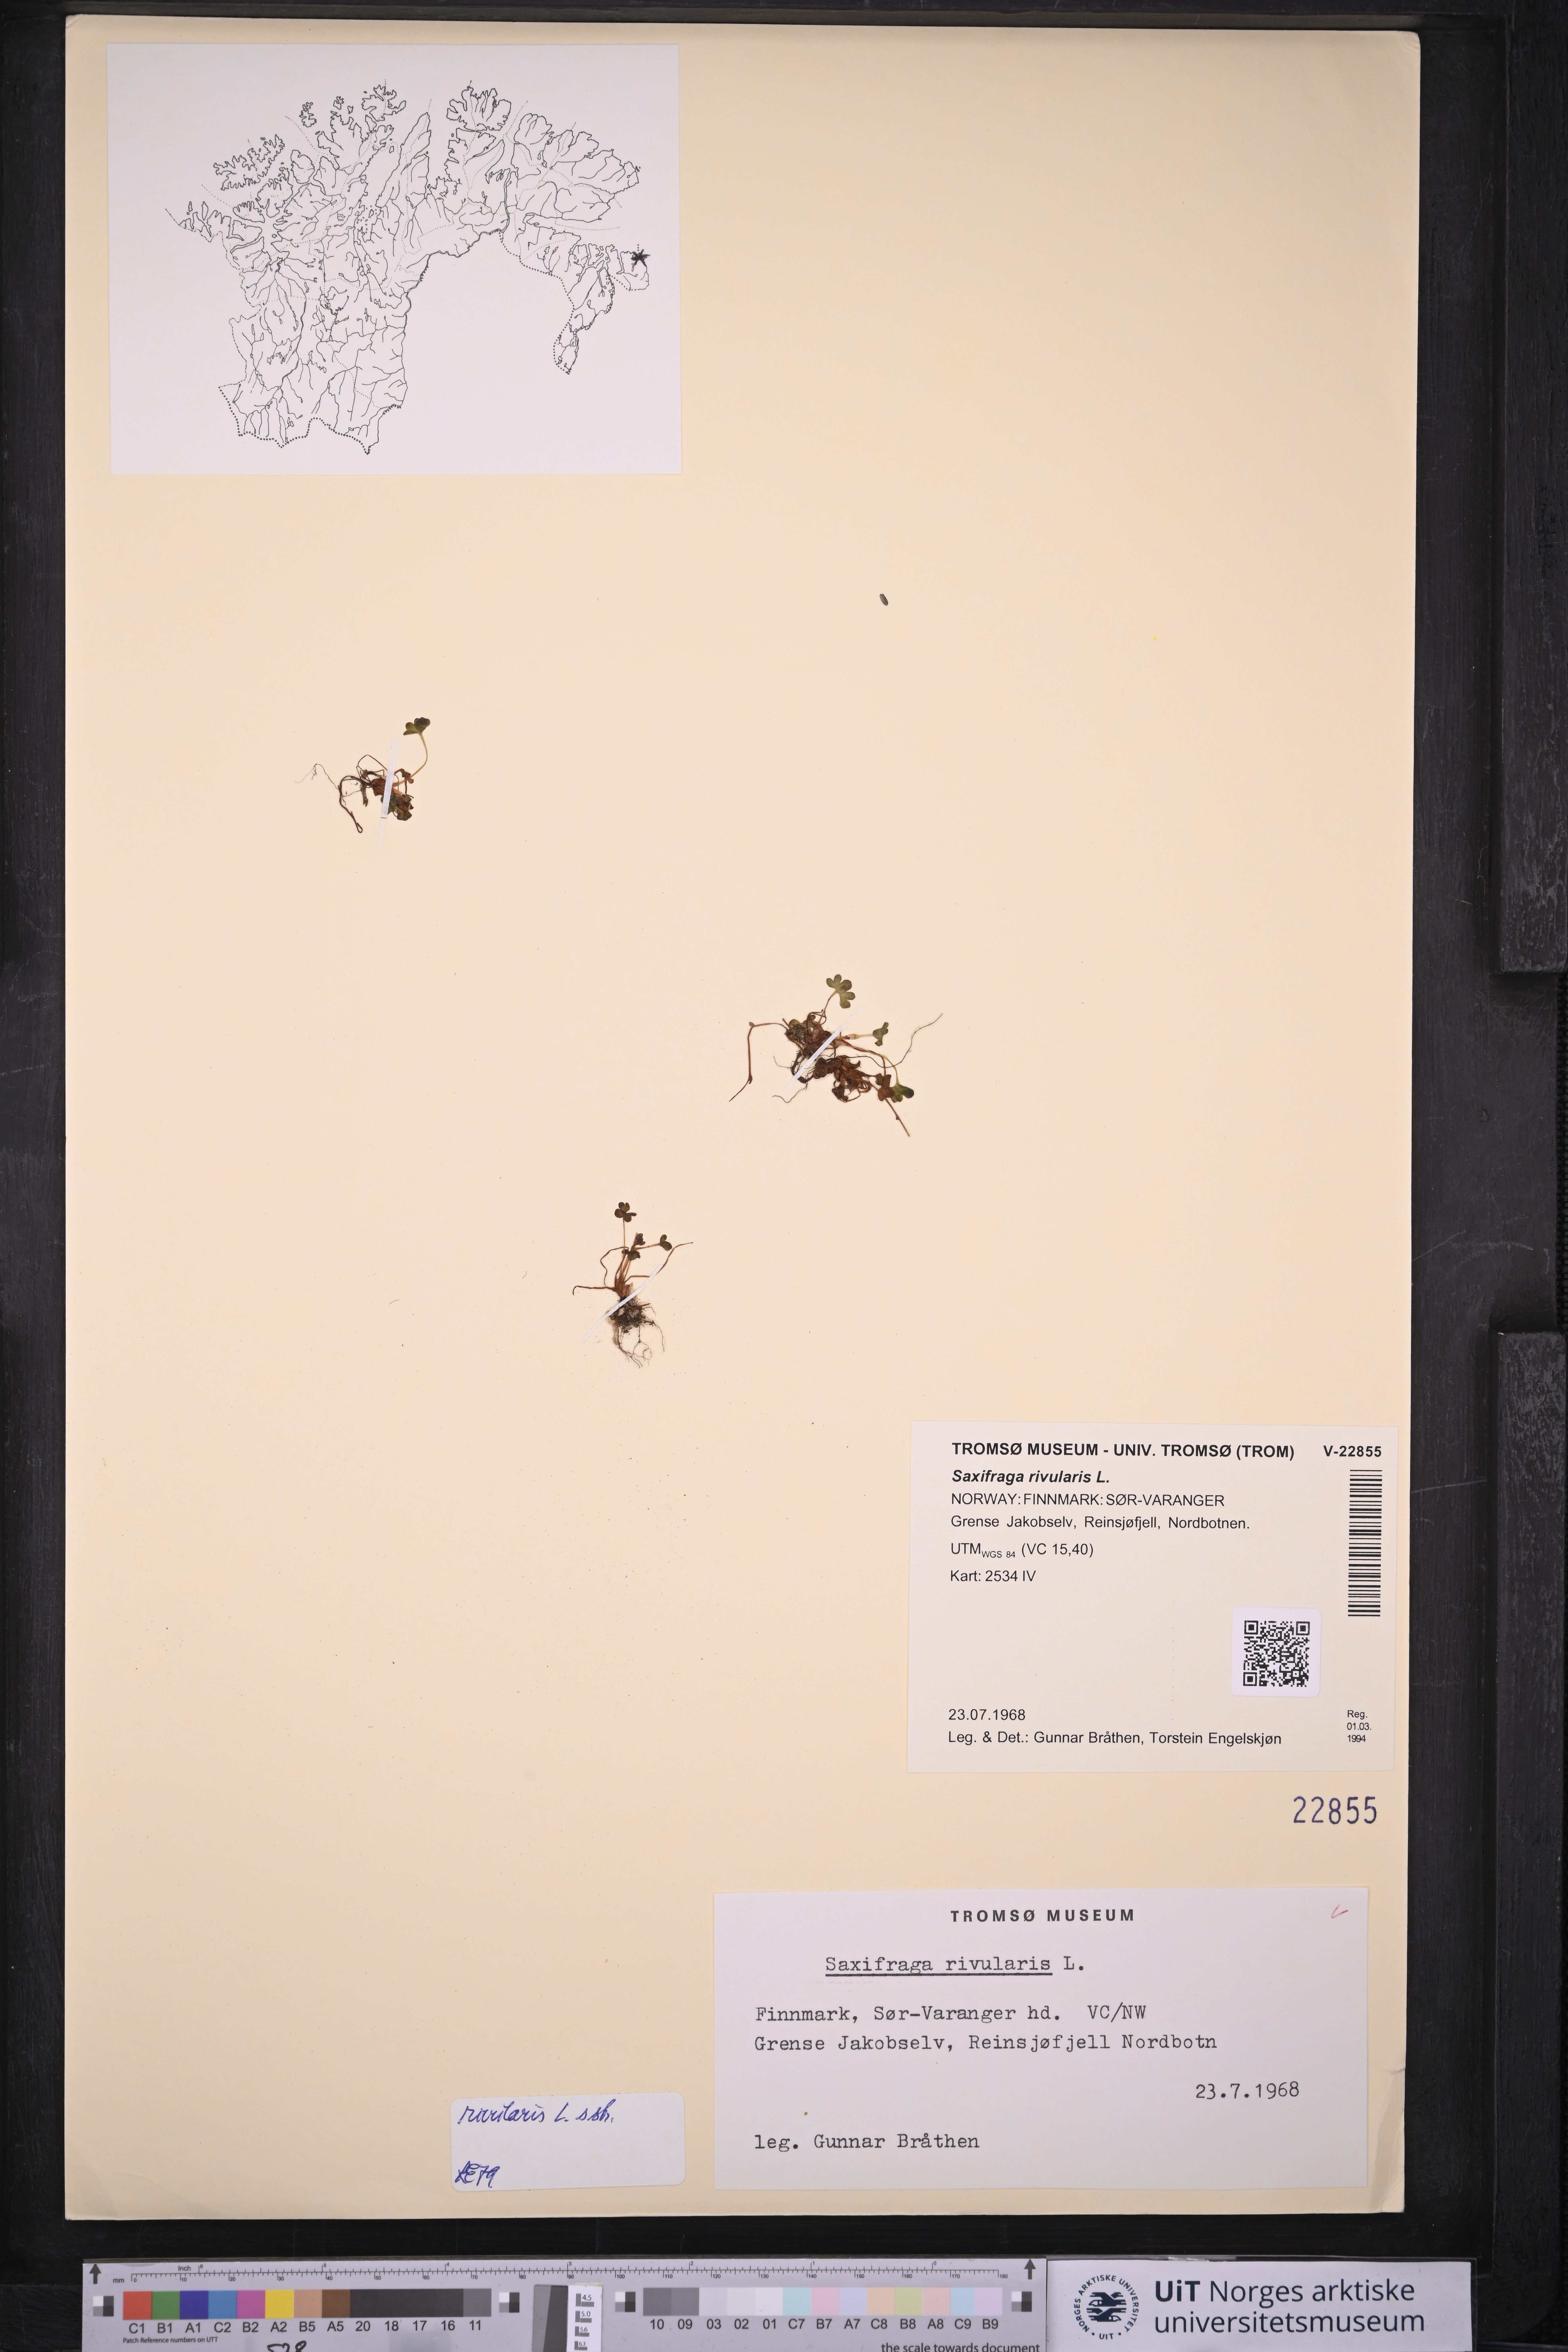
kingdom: Plantae
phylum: Tracheophyta
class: Magnoliopsida
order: Saxifragales
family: Saxifragaceae
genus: Saxifraga
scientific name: Saxifraga rivularis
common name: Highland saxifrage
